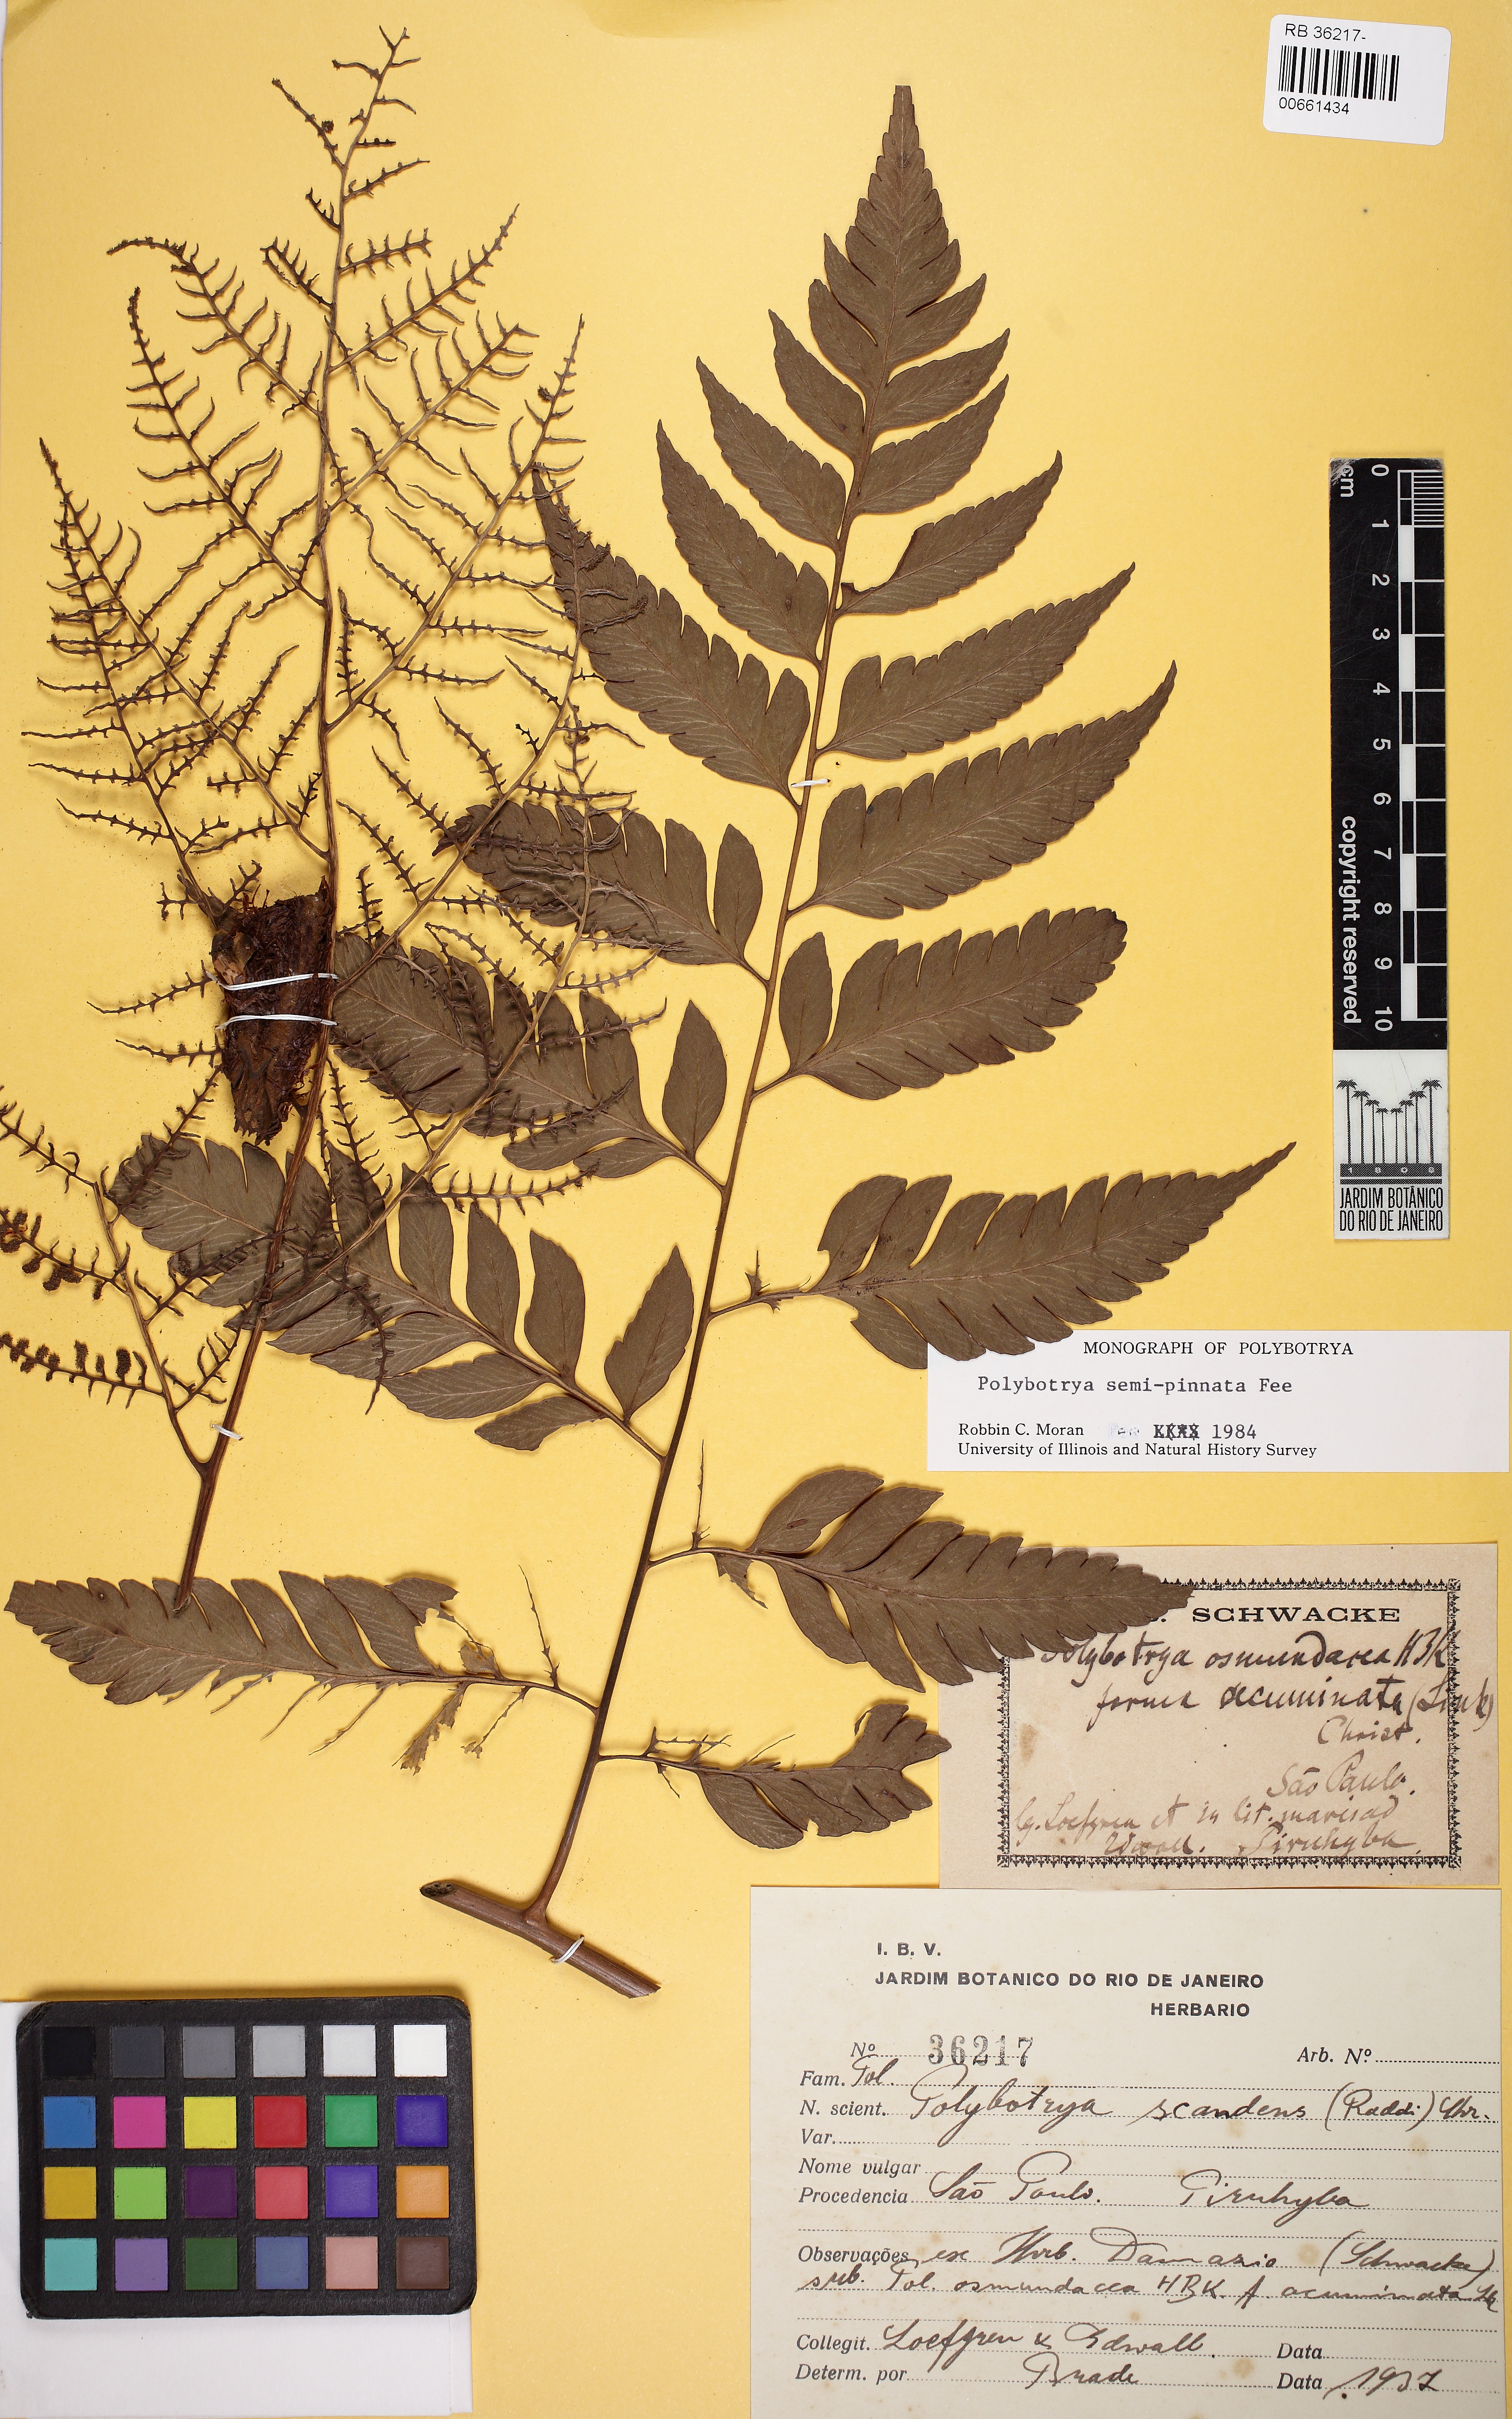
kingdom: Plantae
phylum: Tracheophyta
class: Polypodiopsida
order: Polypodiales
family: Dryopteridaceae
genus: Polybotrya
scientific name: Polybotrya semipinnata
